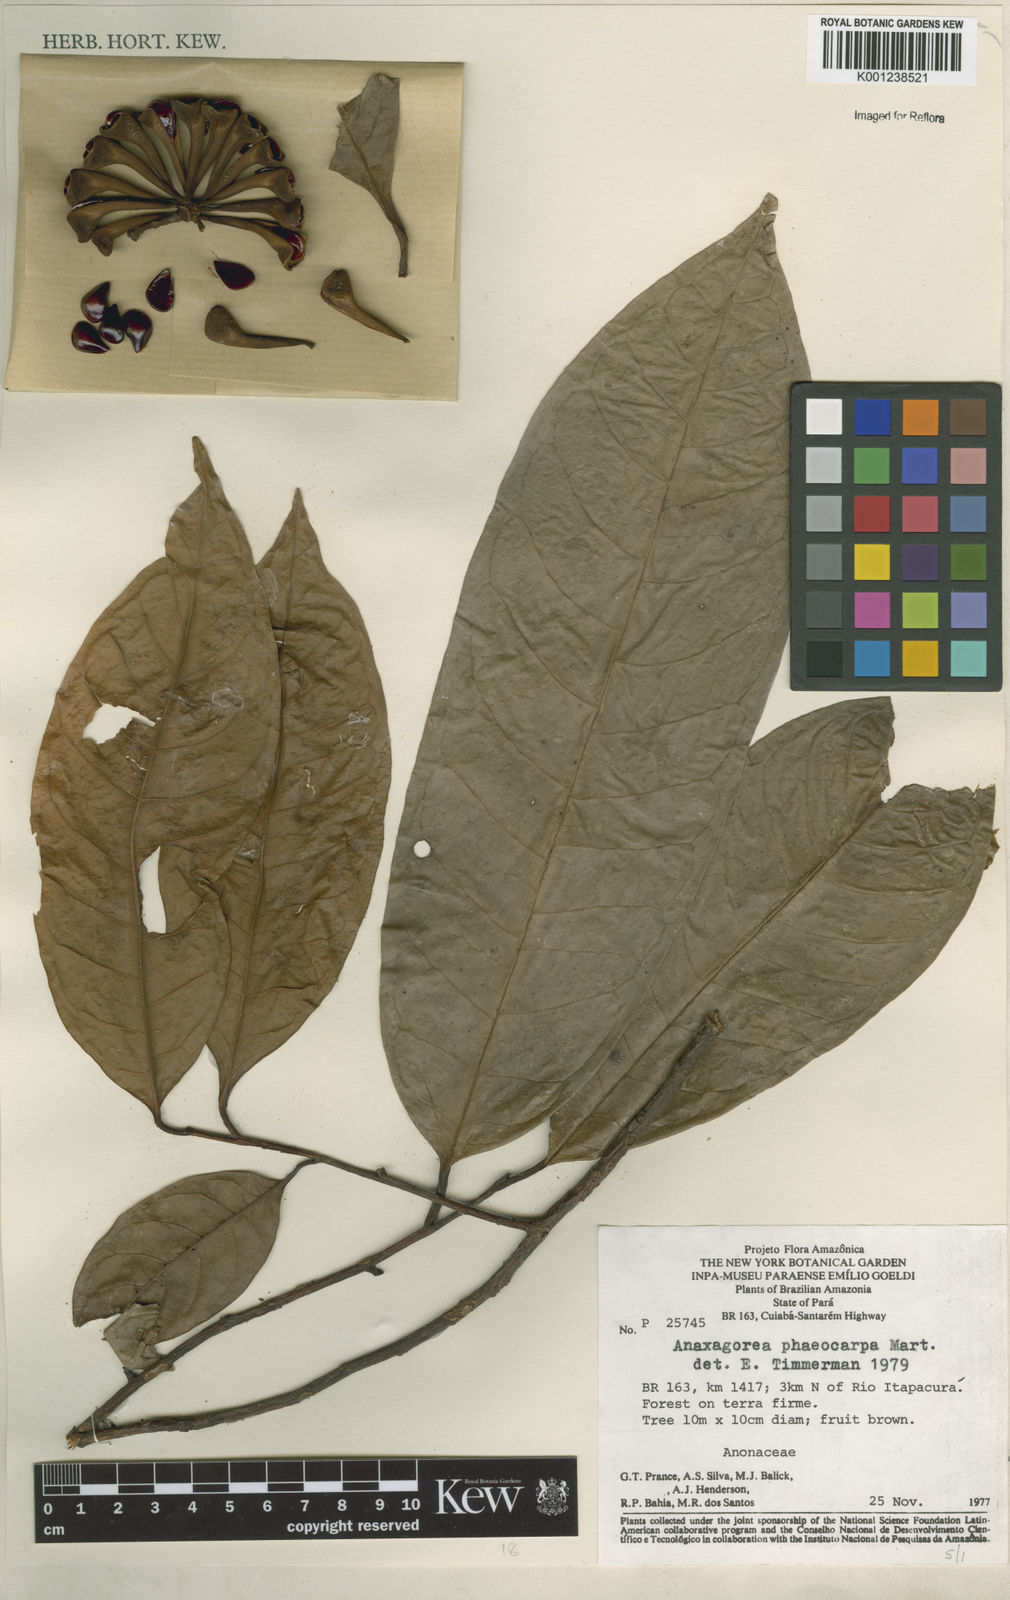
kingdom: Plantae
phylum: Tracheophyta
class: Magnoliopsida
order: Magnoliales
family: Annonaceae
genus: Anaxagorea
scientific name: Anaxagorea phaeocarpa
